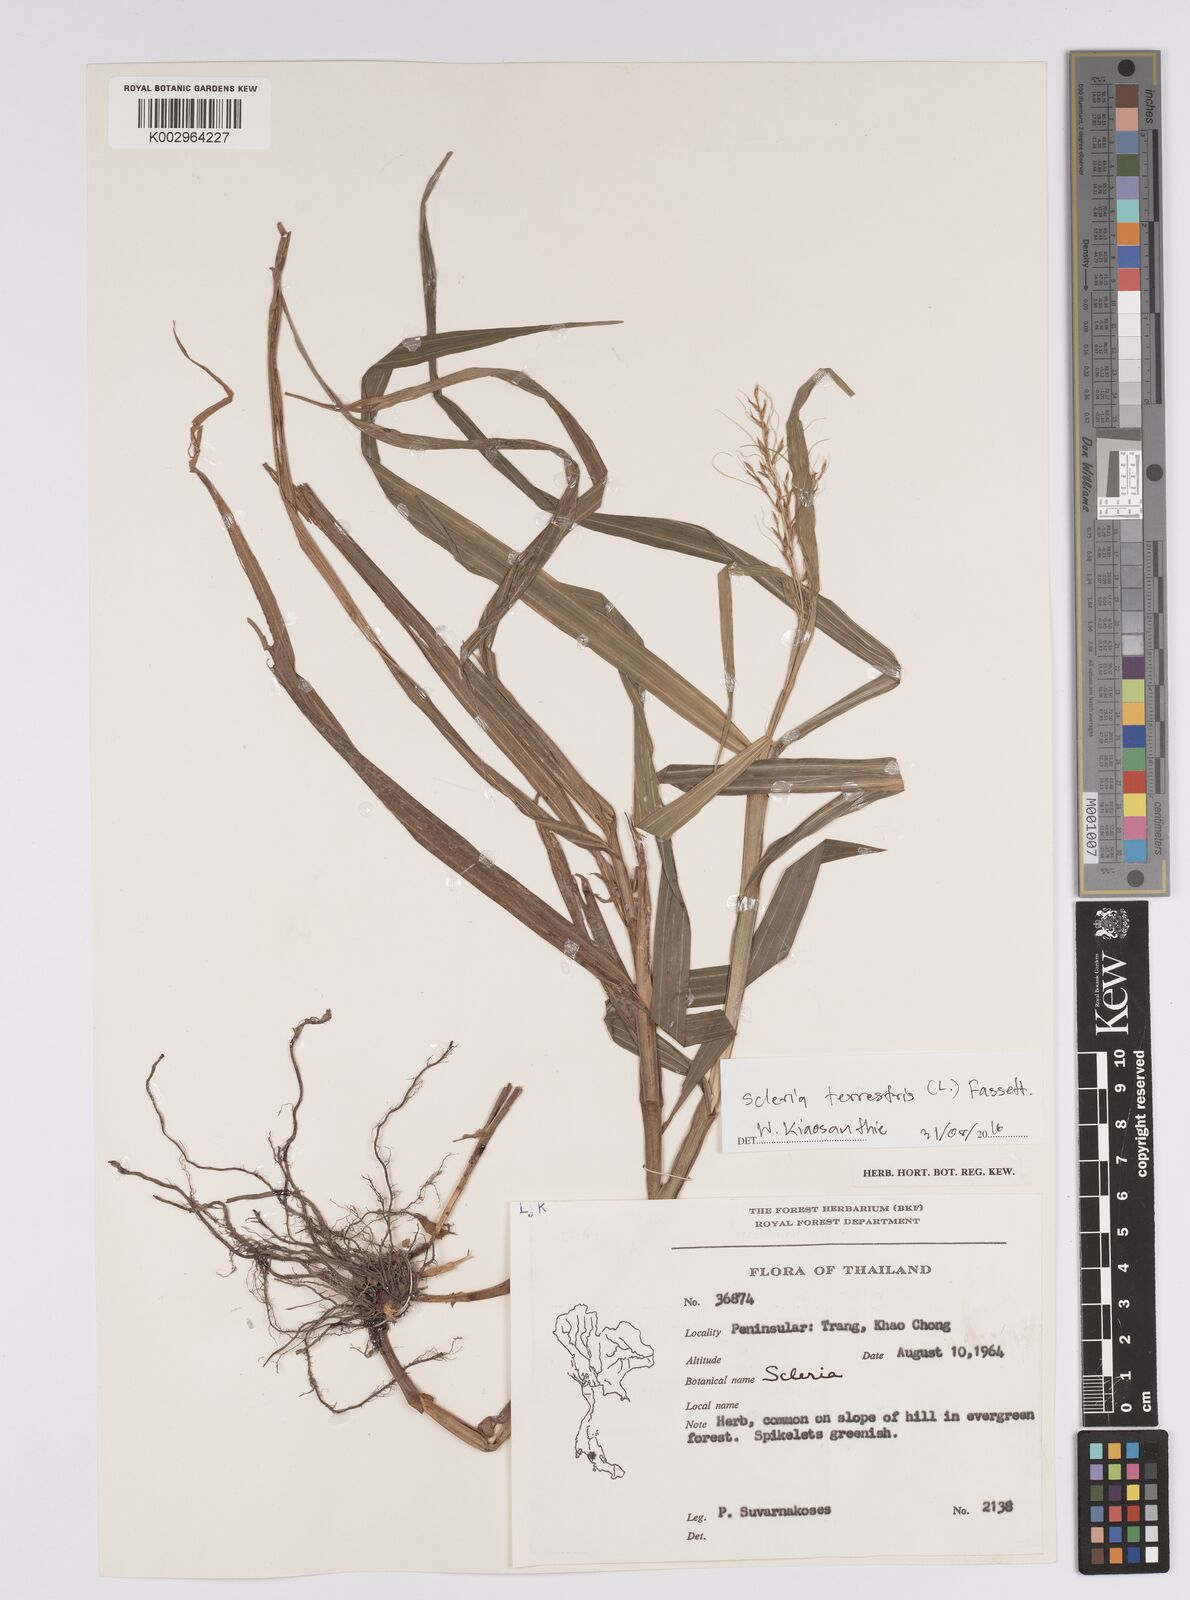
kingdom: Plantae
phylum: Tracheophyta
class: Liliopsida
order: Poales
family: Cyperaceae
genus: Scleria
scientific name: Scleria terrestris
